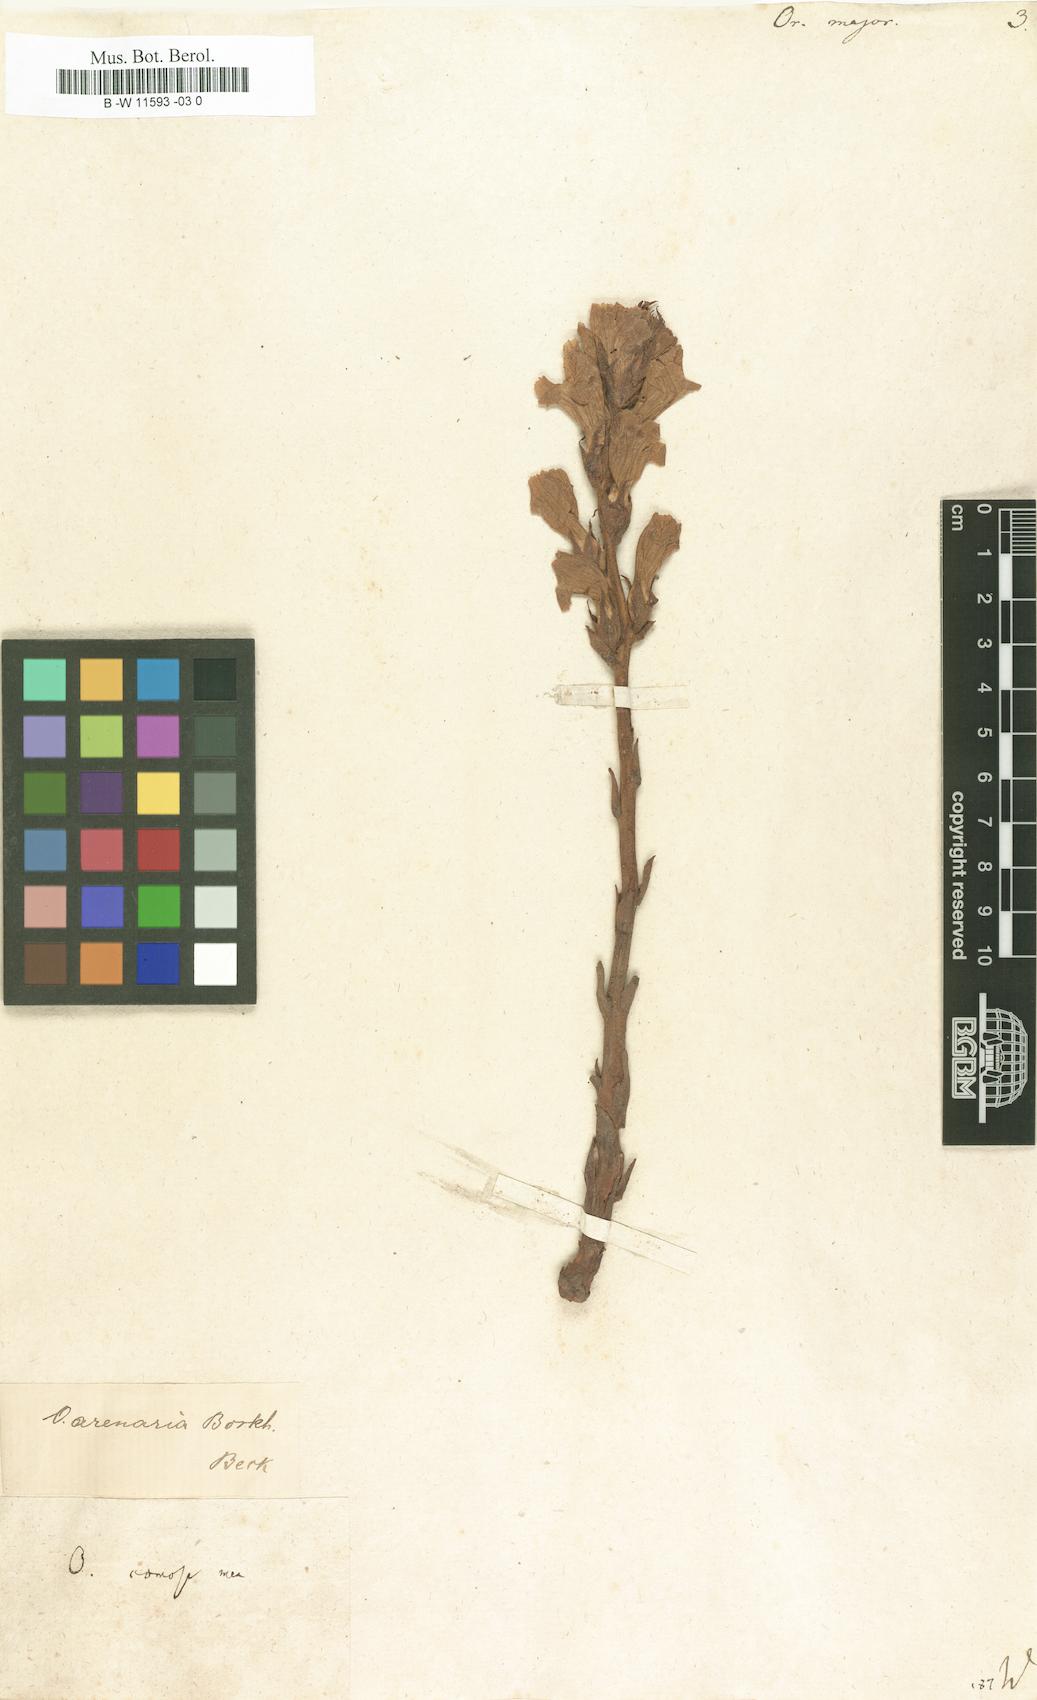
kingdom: Plantae
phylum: Tracheophyta
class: Magnoliopsida
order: Lamiales
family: Orobanchaceae
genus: Orobanche
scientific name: Orobanche major
